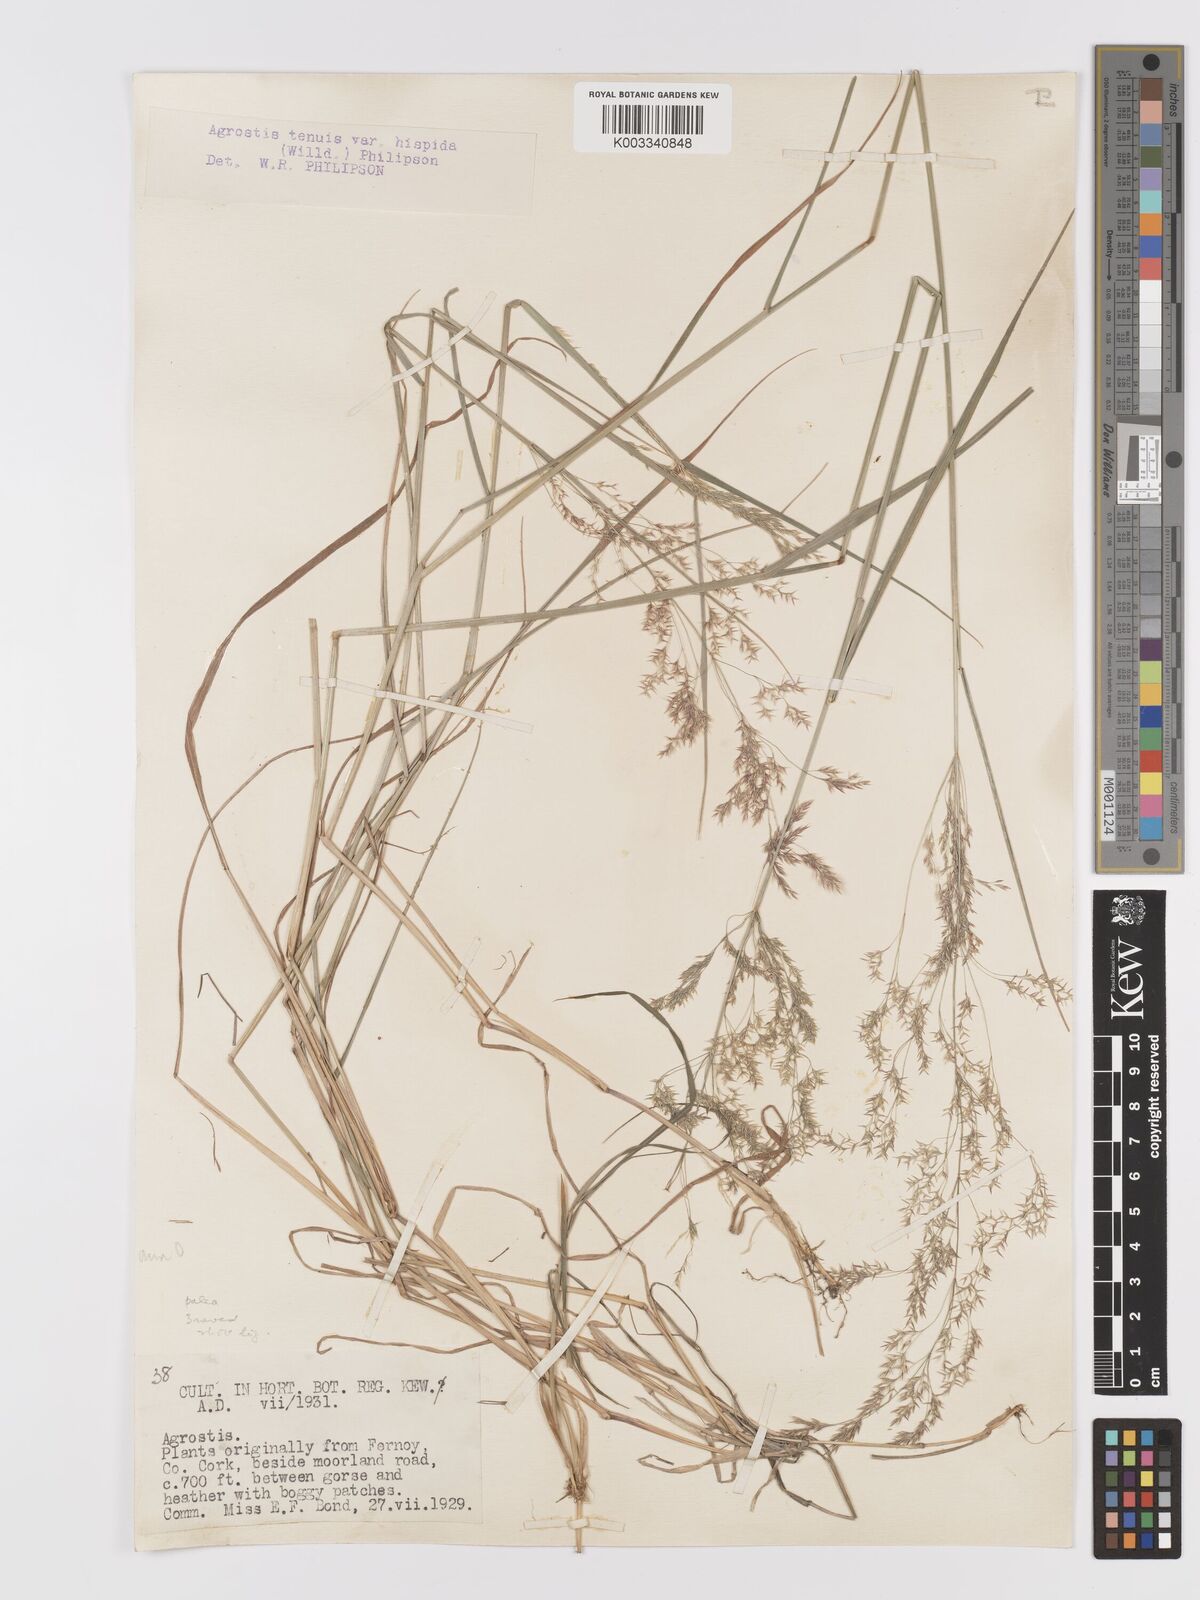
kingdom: Plantae
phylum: Tracheophyta
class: Liliopsida
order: Poales
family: Poaceae
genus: Agrostis
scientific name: Agrostis capillaris
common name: Colonial bentgrass
